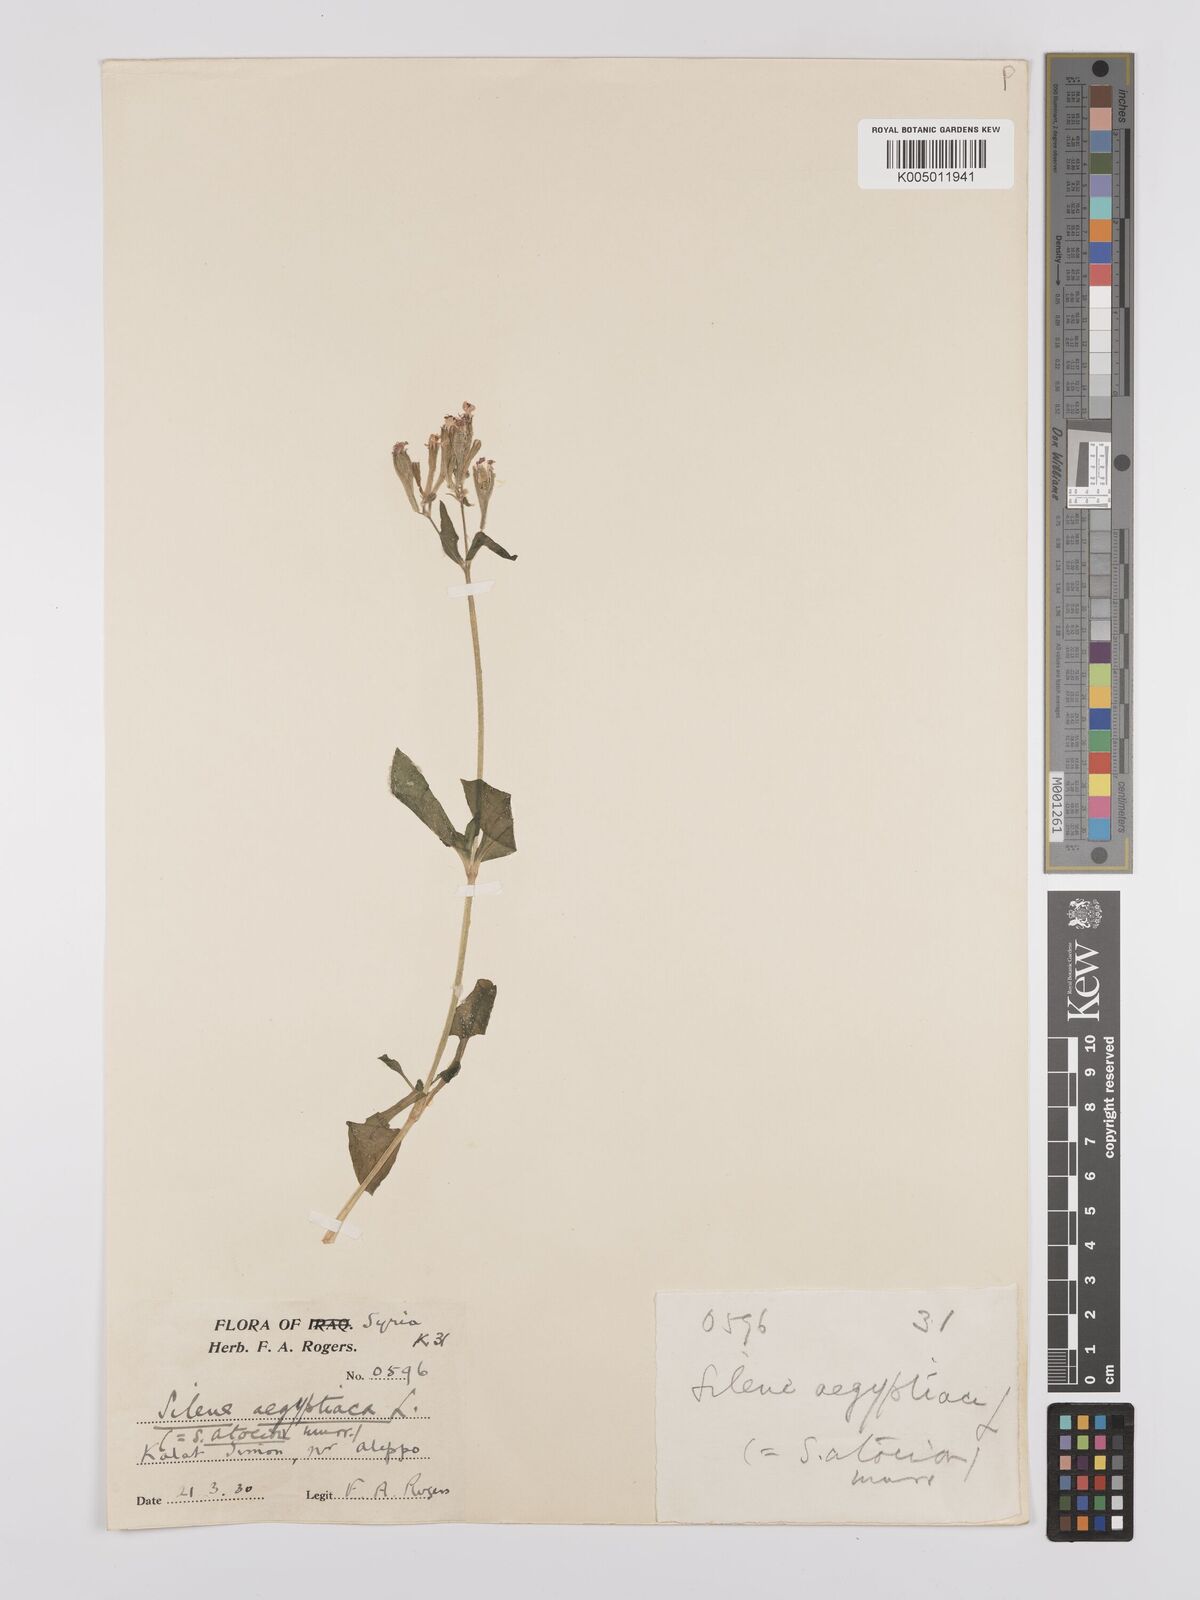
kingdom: Plantae
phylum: Tracheophyta
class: Magnoliopsida
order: Caryophyllales
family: Caryophyllaceae
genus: Silene
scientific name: Silene aegyptiaca
